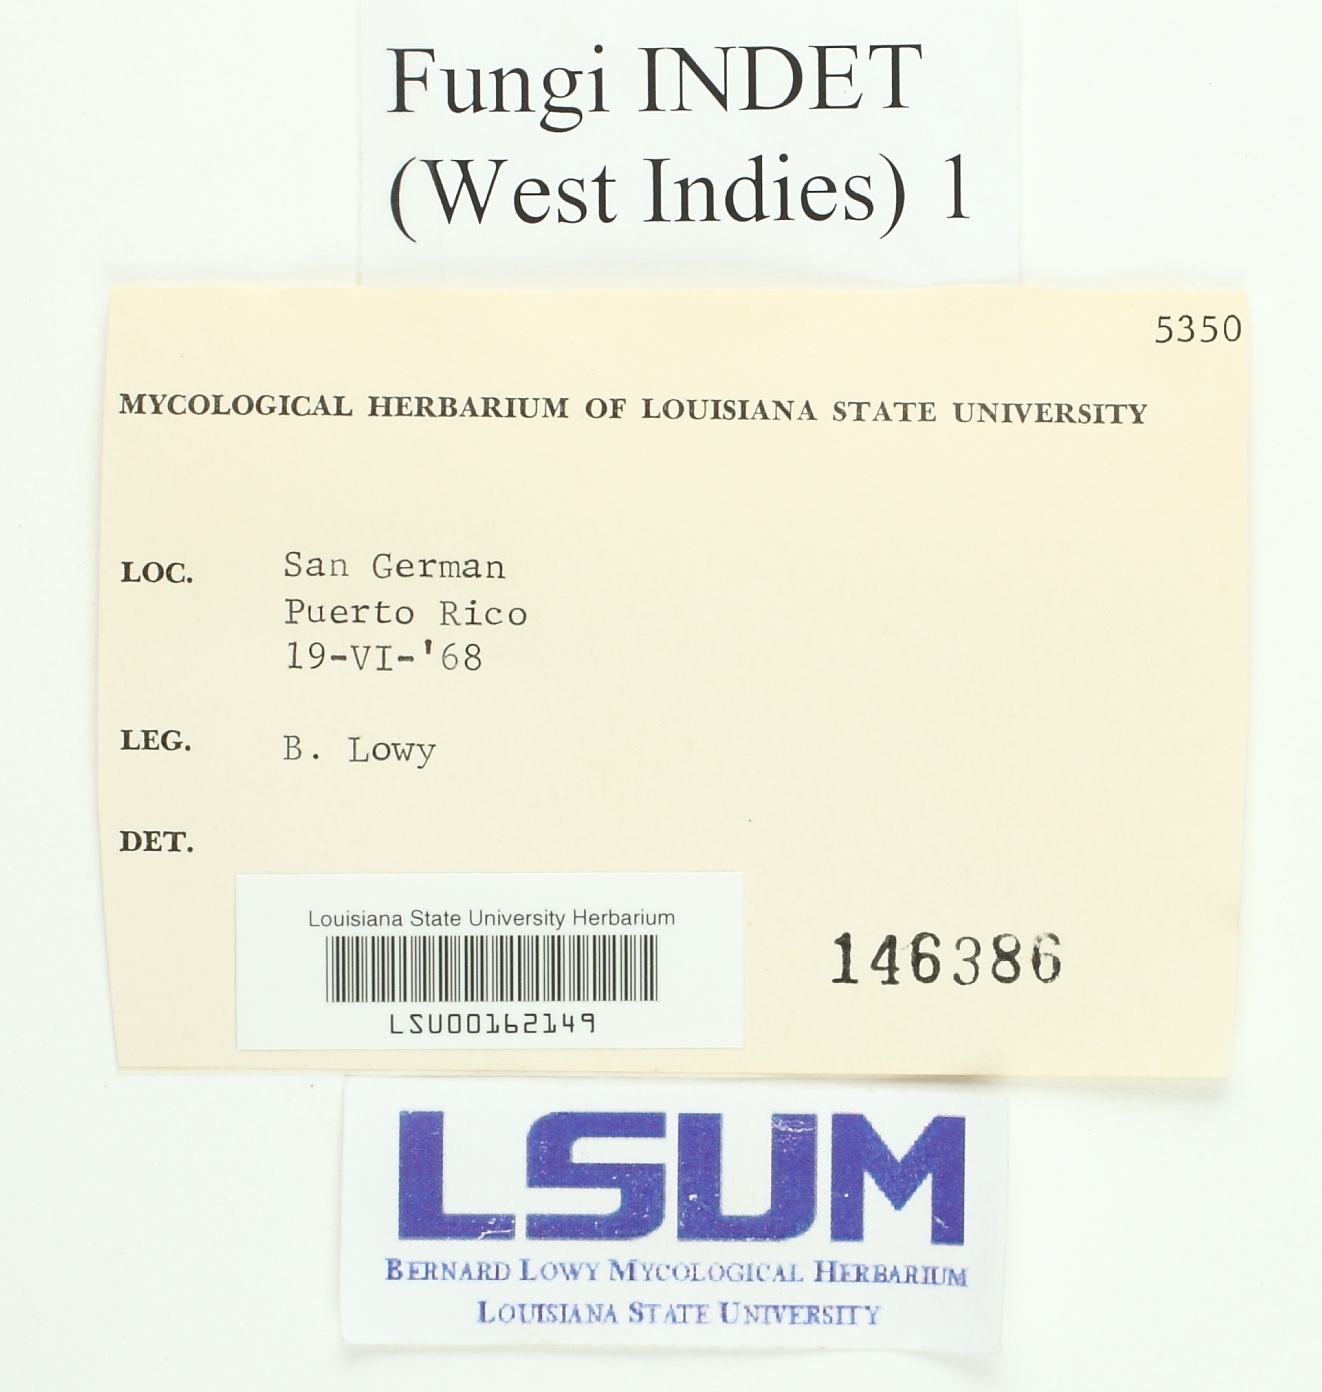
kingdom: Fungi
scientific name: Fungi
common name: Fungi
